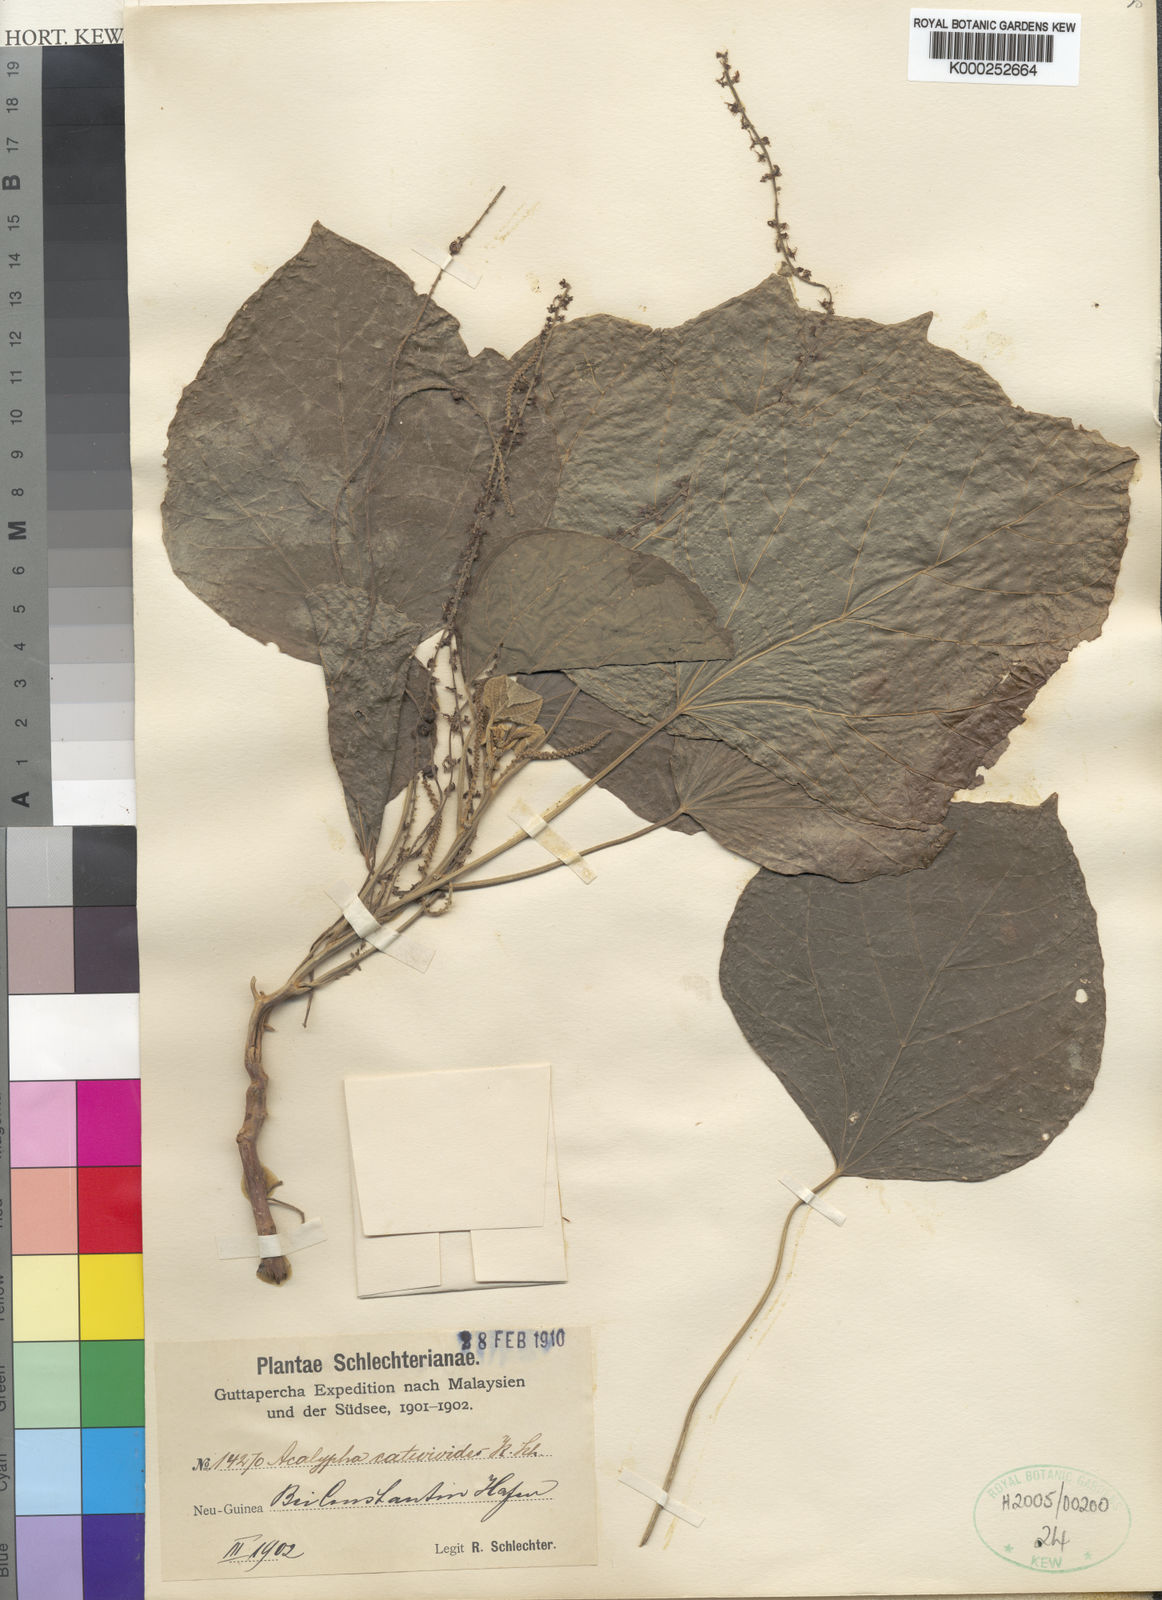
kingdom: Plantae
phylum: Tracheophyta
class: Magnoliopsida
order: Malpighiales
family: Euphorbiaceae
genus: Acalypha
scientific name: Acalypha longispica
